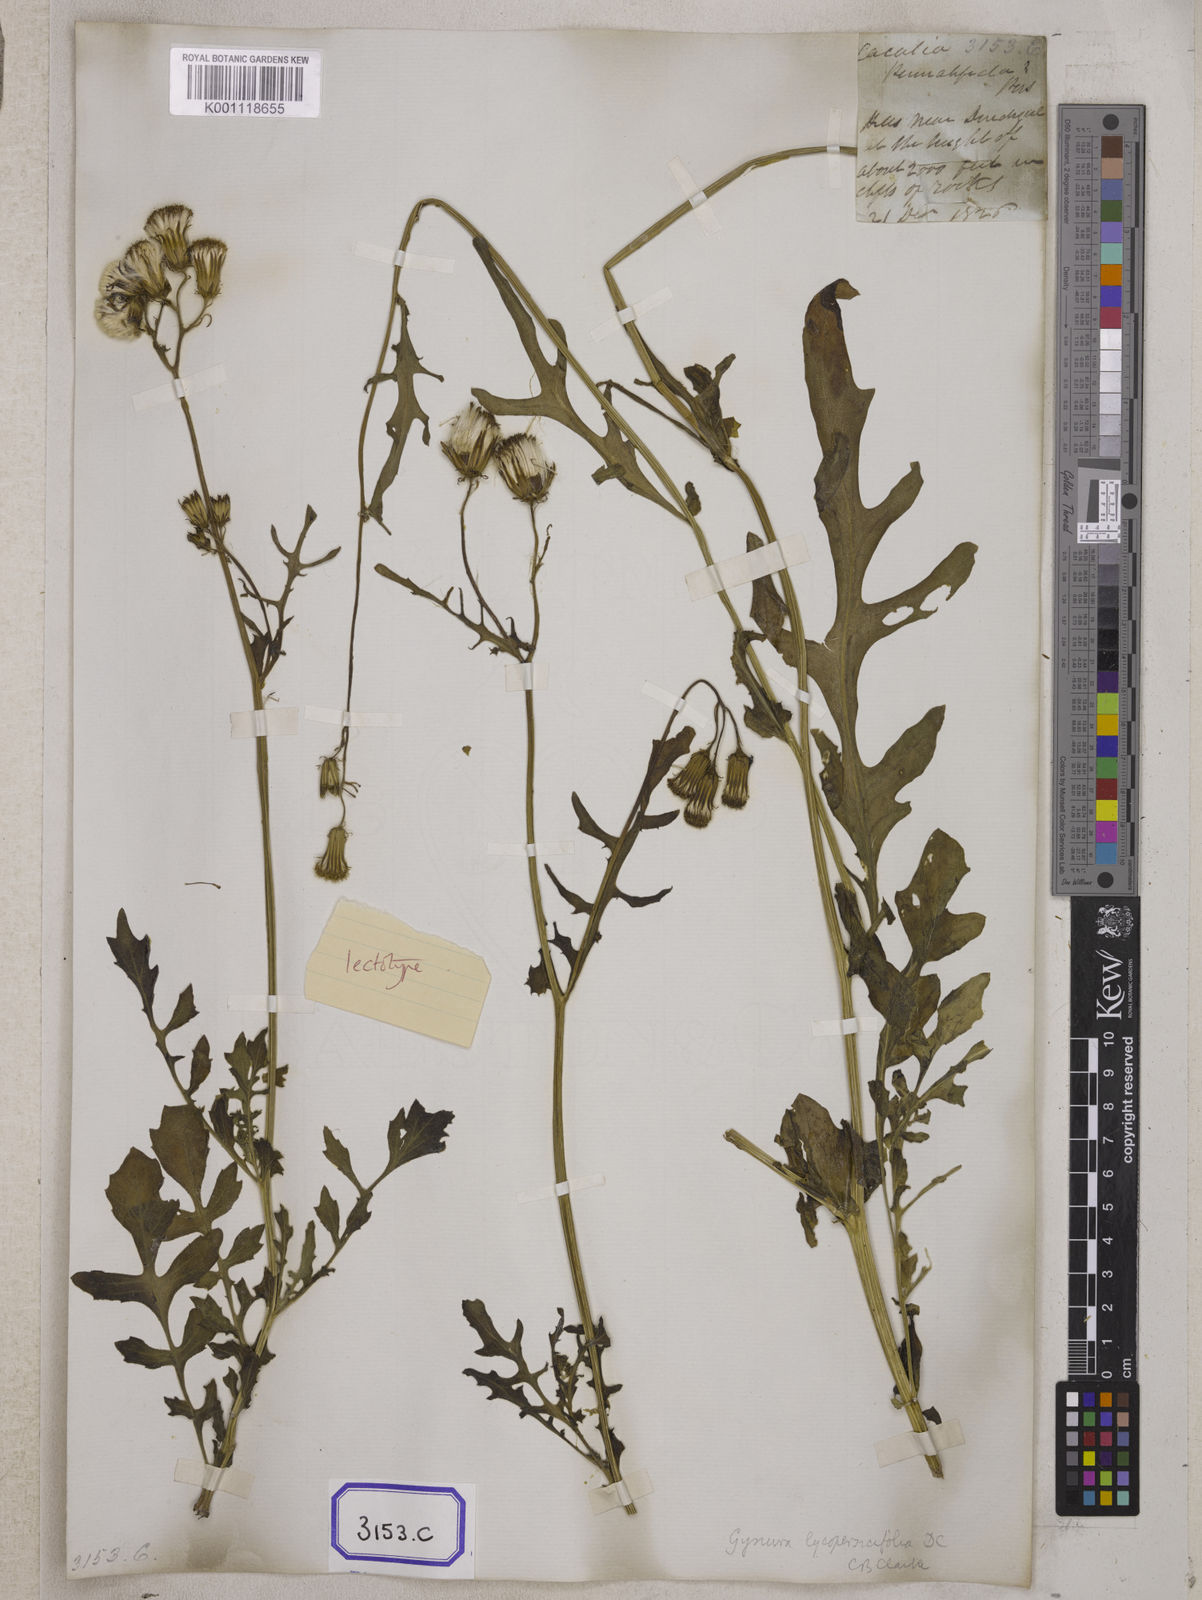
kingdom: Plantae
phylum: Tracheophyta
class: Magnoliopsida
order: Asterales
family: Asteraceae
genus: Gynura
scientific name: Gynura lycopersicifolia
